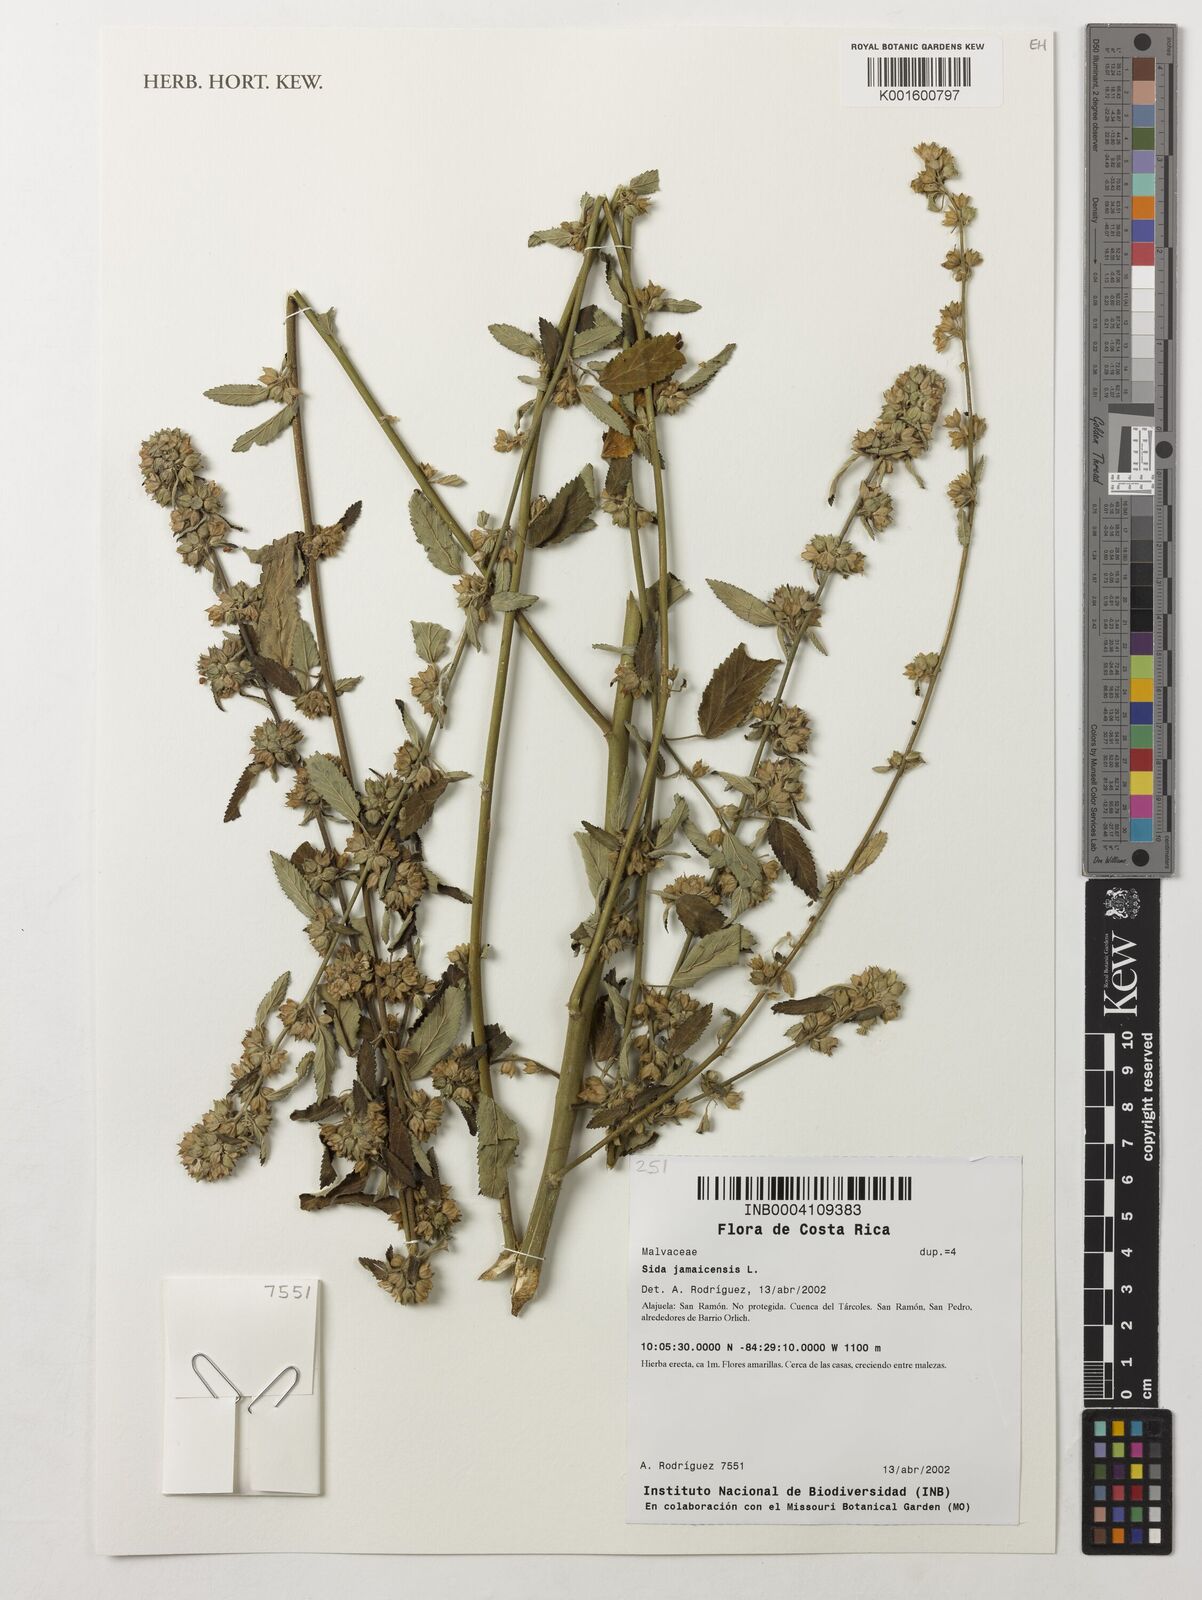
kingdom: Plantae
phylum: Tracheophyta
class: Magnoliopsida
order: Malvales
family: Malvaceae
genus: Sida
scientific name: Sida jamaicensis
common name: Jamaican fanpetals
